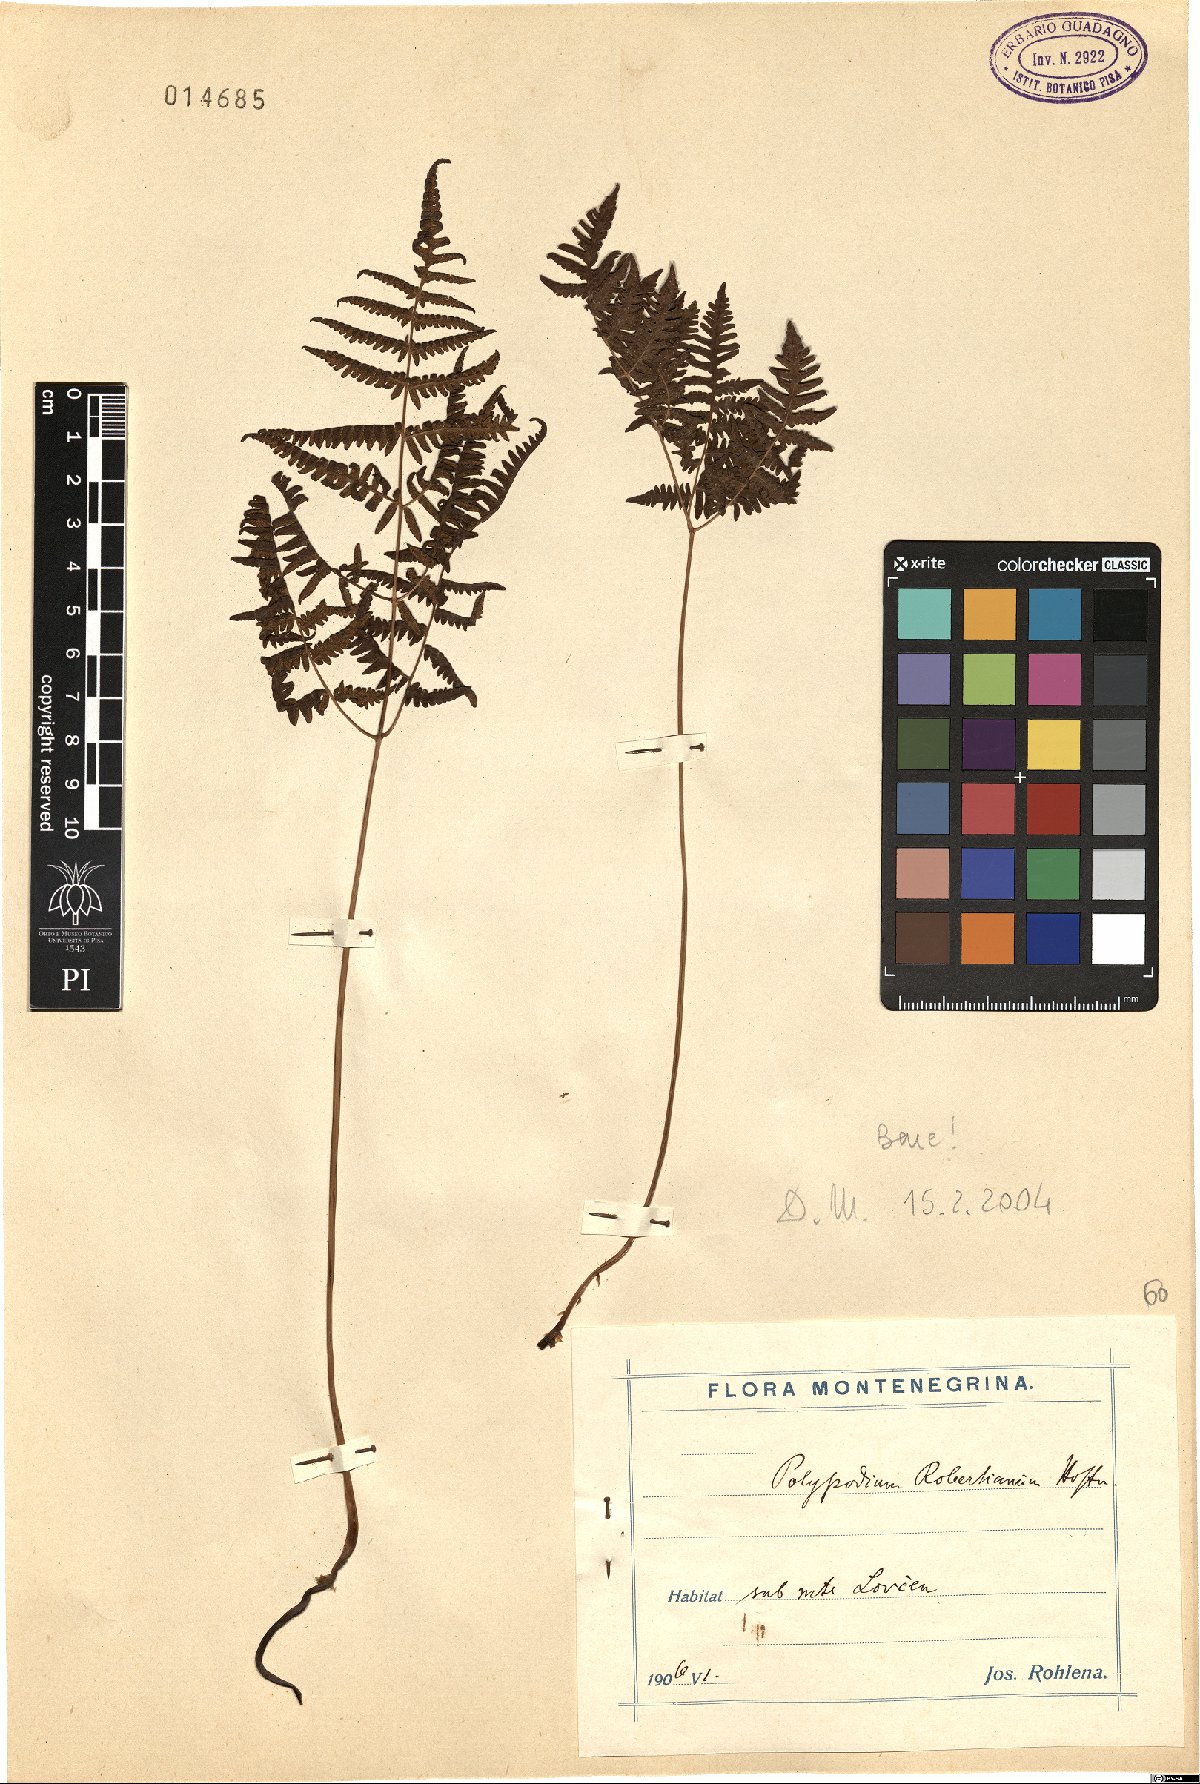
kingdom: Plantae
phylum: Tracheophyta
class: Polypodiopsida
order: Polypodiales
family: Cystopteridaceae
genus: Gymnocarpium
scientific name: Gymnocarpium robertianum
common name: Limestone fern
